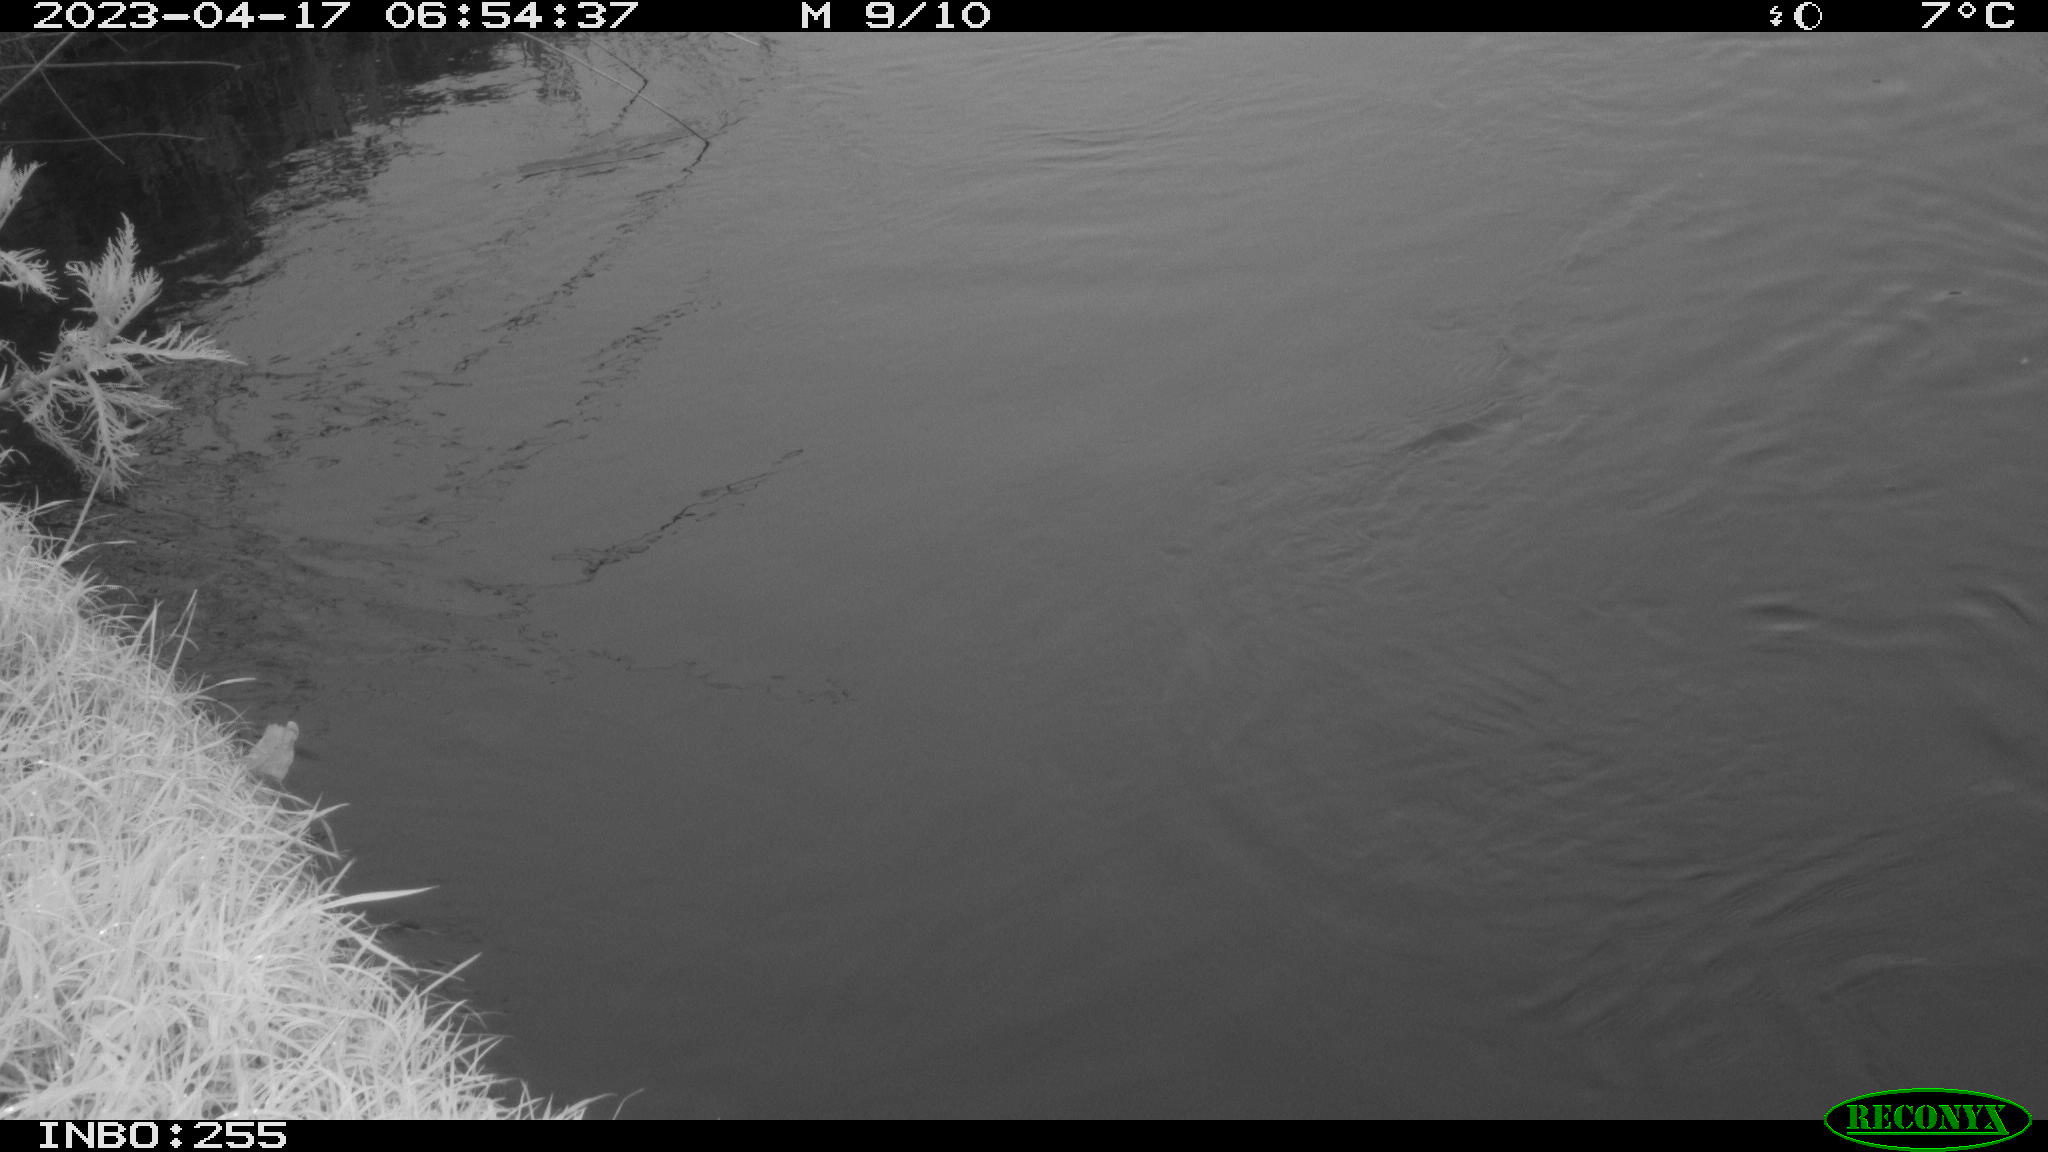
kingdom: Animalia
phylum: Chordata
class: Aves
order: Anseriformes
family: Anatidae
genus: Anas
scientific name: Anas
